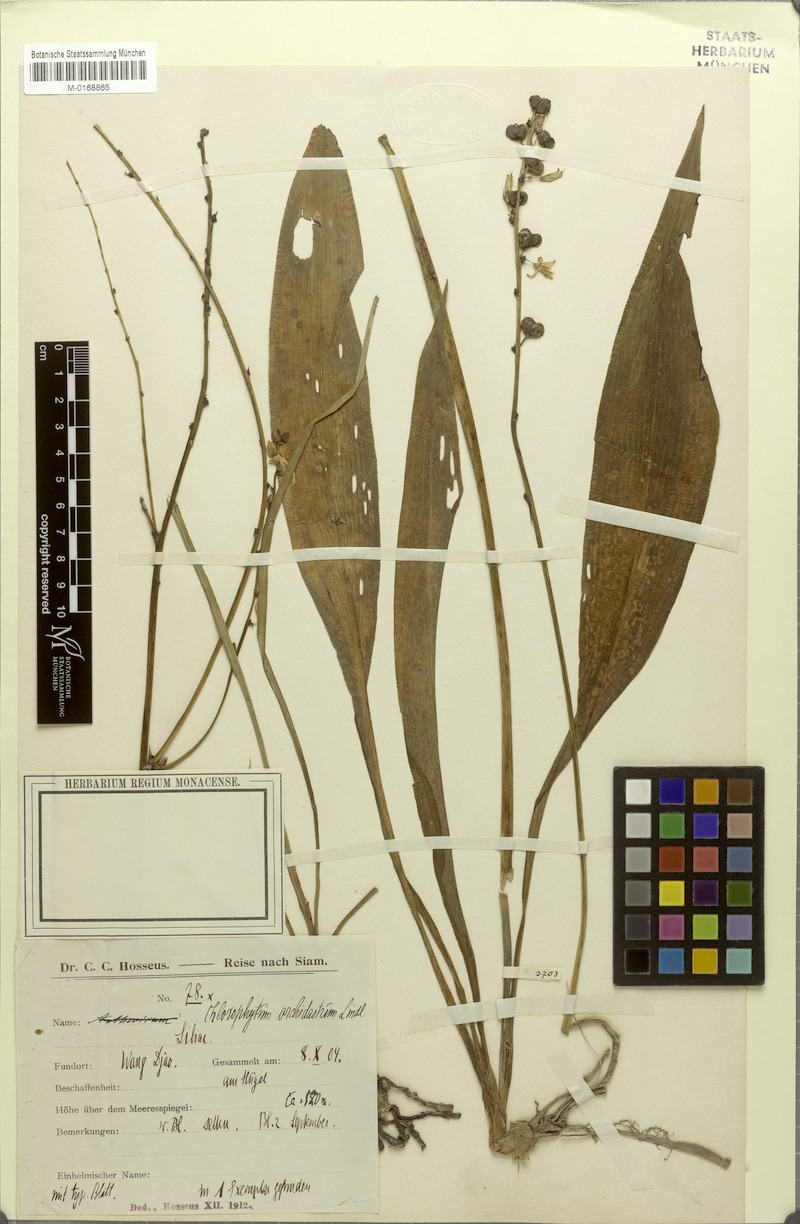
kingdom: Plantae
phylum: Tracheophyta
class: Liliopsida
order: Asparagales
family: Asparagaceae
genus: Chlorophytum
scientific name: Chlorophytum orchidastrum
